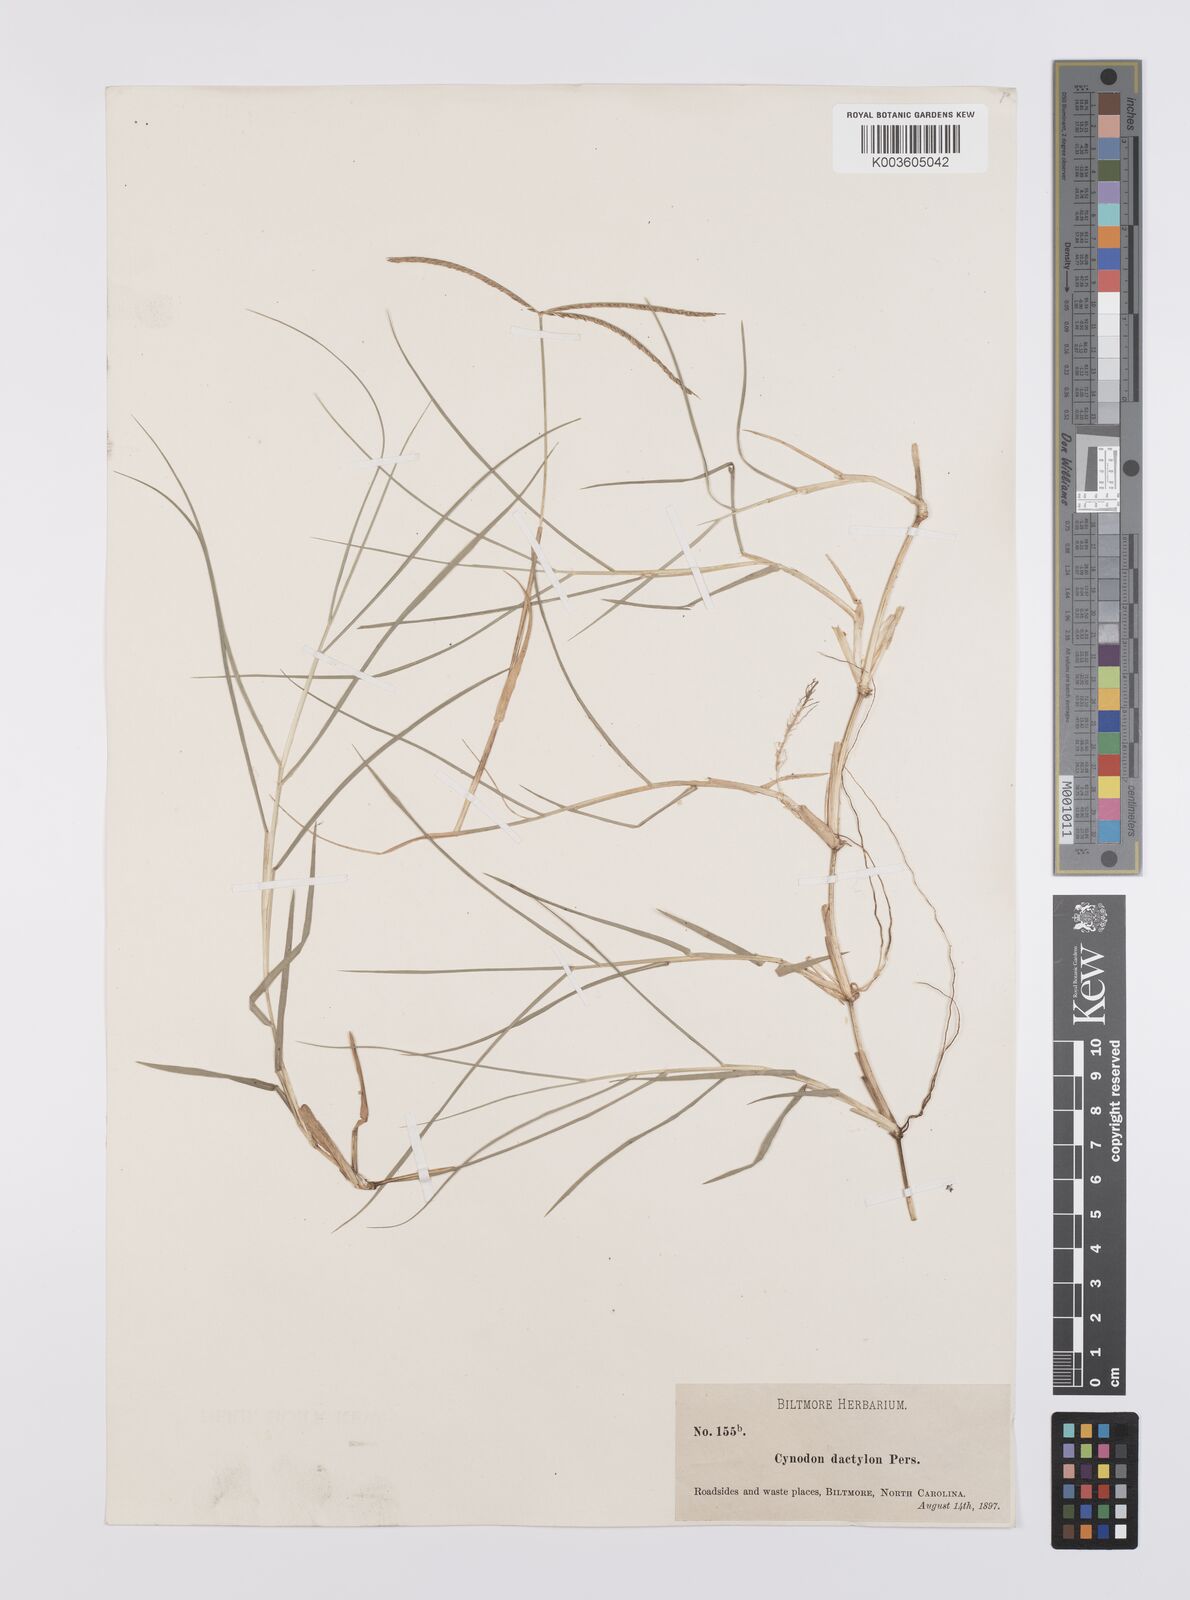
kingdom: Plantae
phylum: Tracheophyta
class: Liliopsida
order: Poales
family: Poaceae
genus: Cynodon
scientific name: Cynodon dactylon
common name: Bermuda grass
